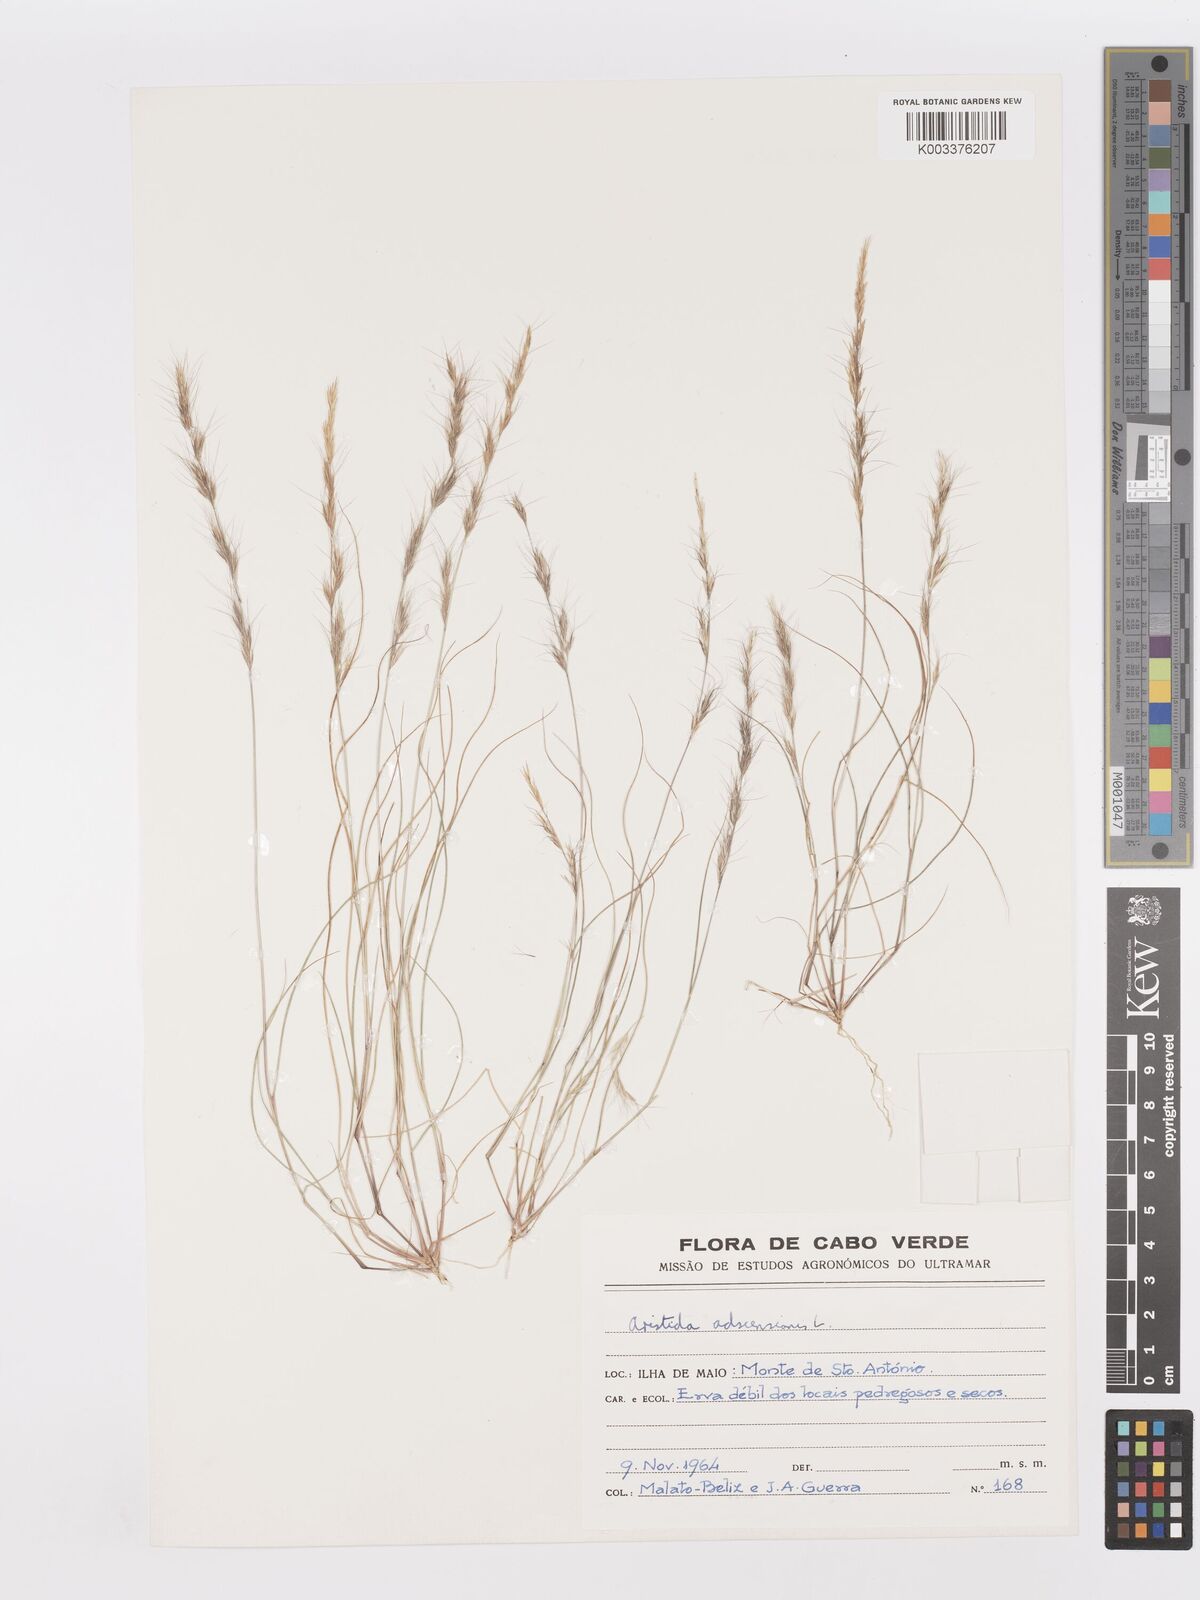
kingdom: Plantae
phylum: Tracheophyta
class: Liliopsida
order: Poales
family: Poaceae
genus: Aristida
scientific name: Aristida adscensionis
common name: Sixweeks threeawn
